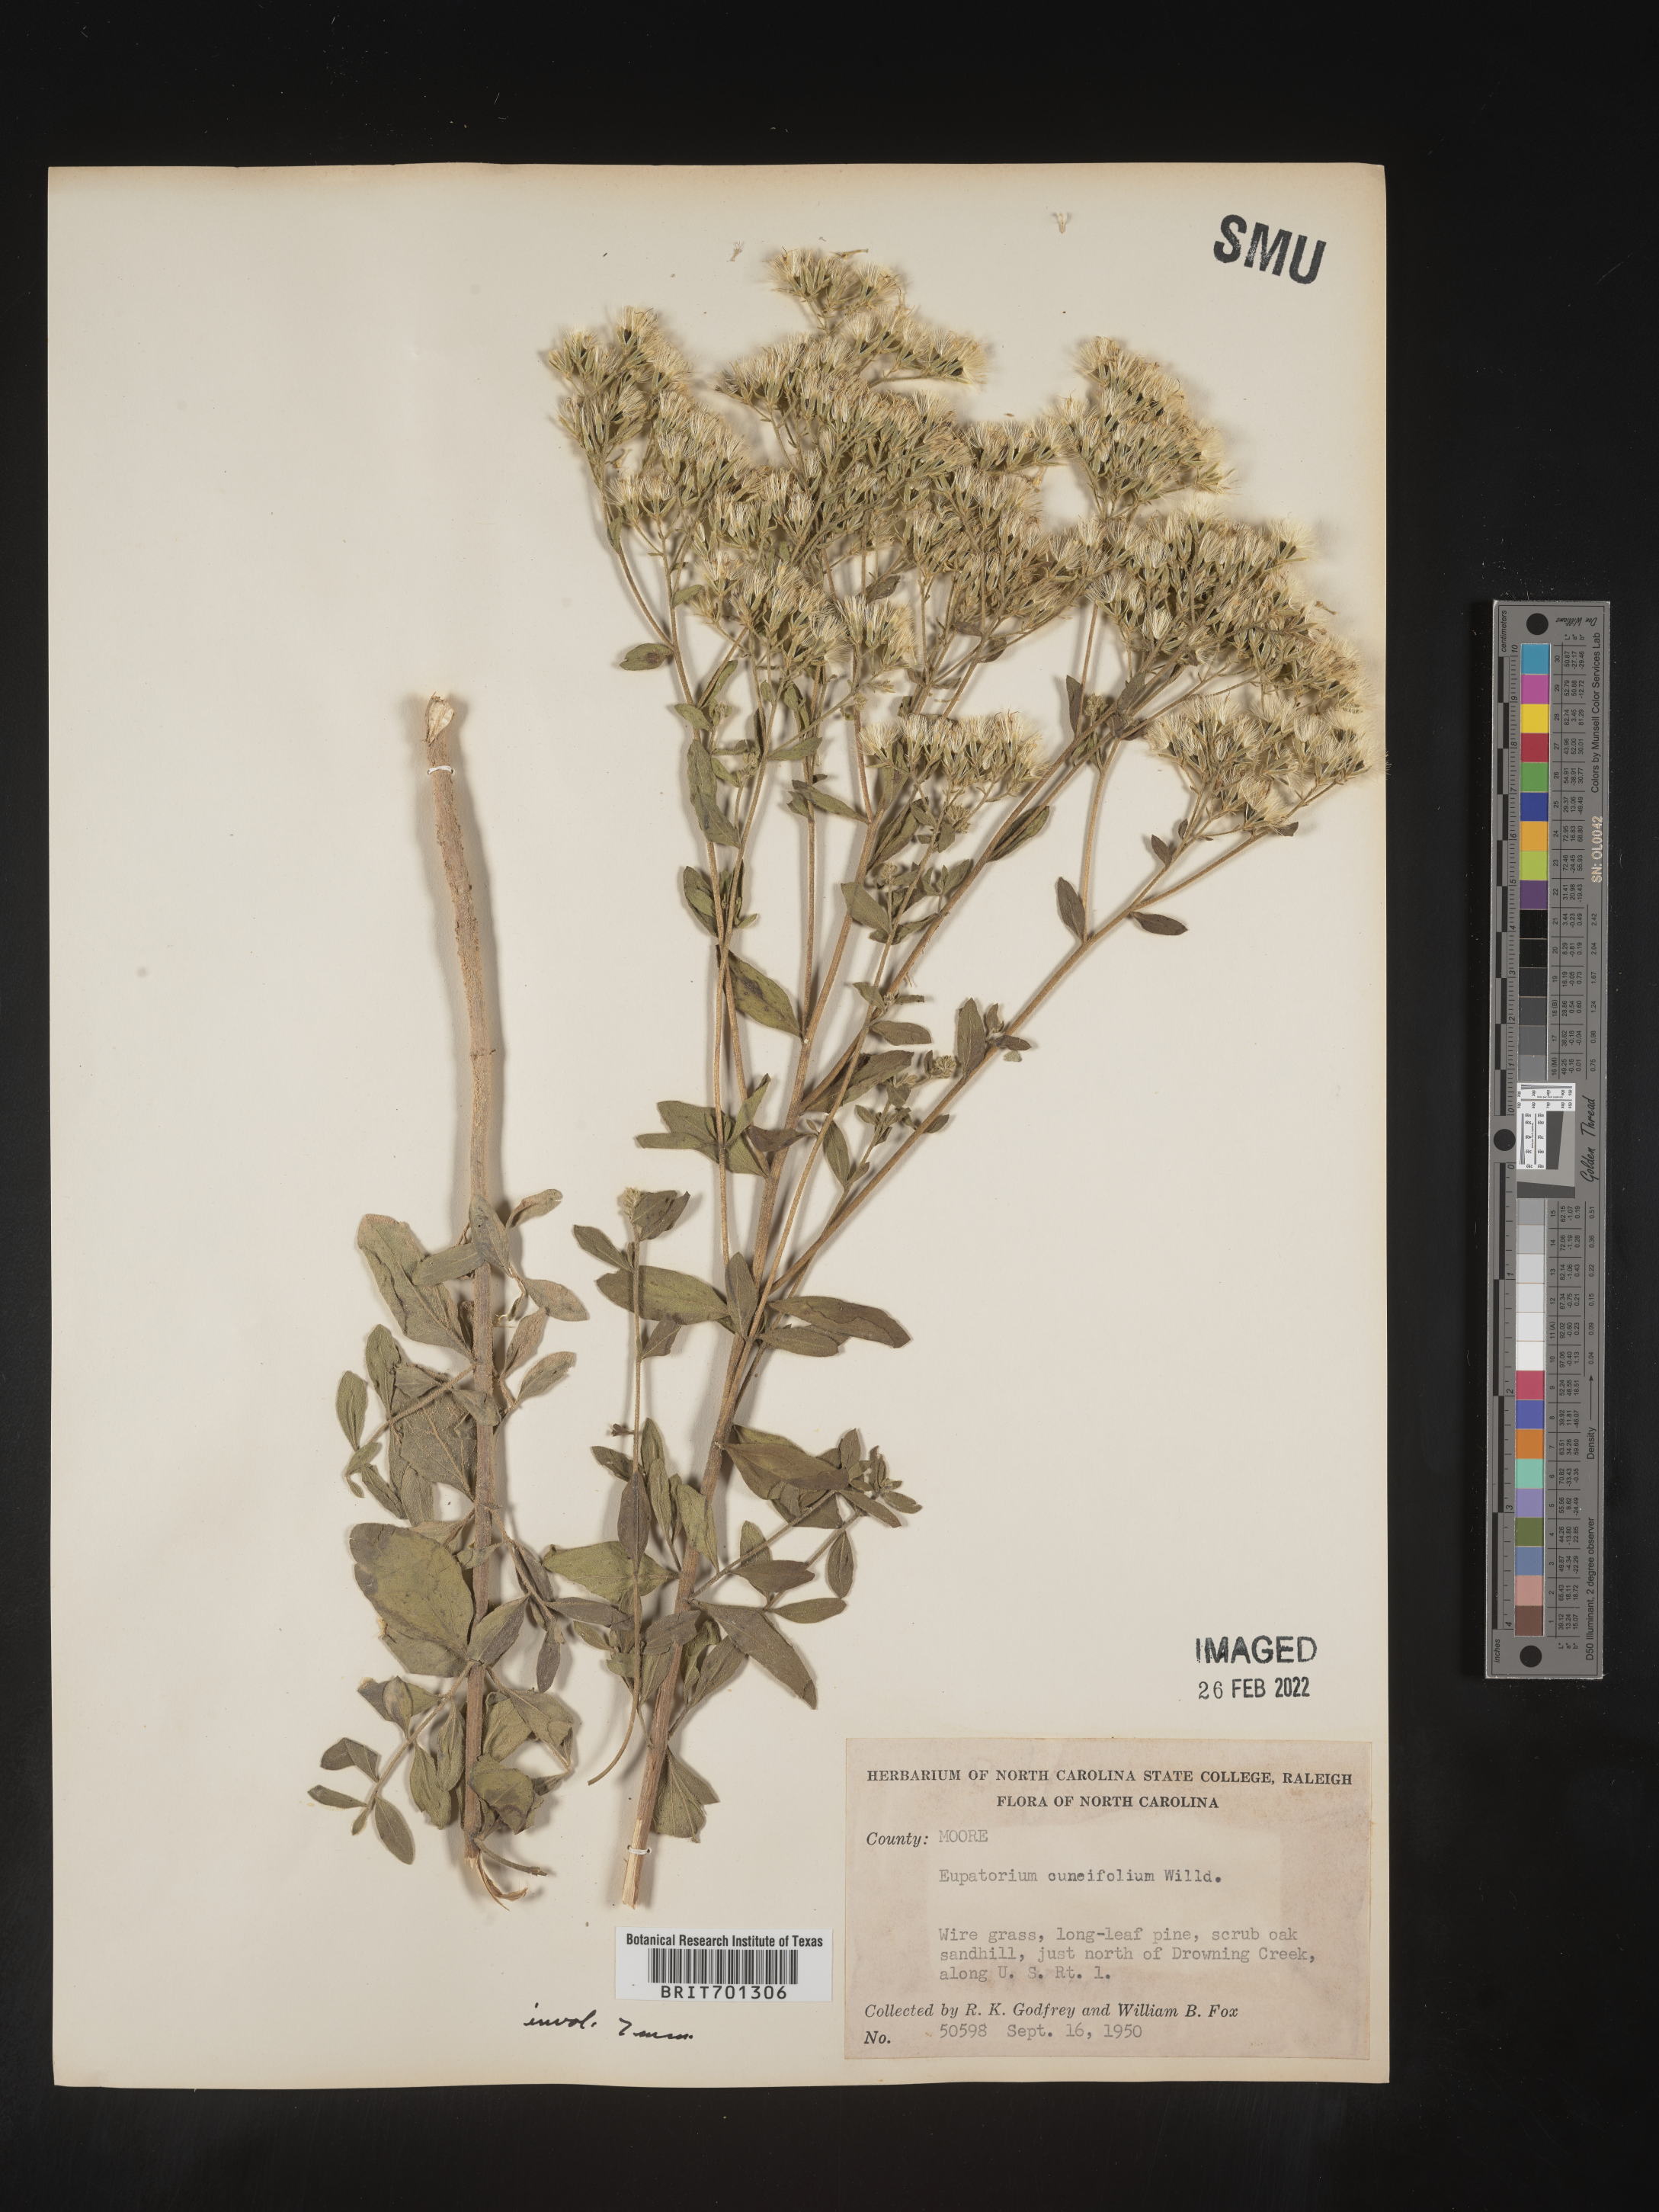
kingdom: Plantae
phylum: Tracheophyta
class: Magnoliopsida
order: Asterales
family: Asteraceae
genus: Eupatorium
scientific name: Eupatorium linearifolium
